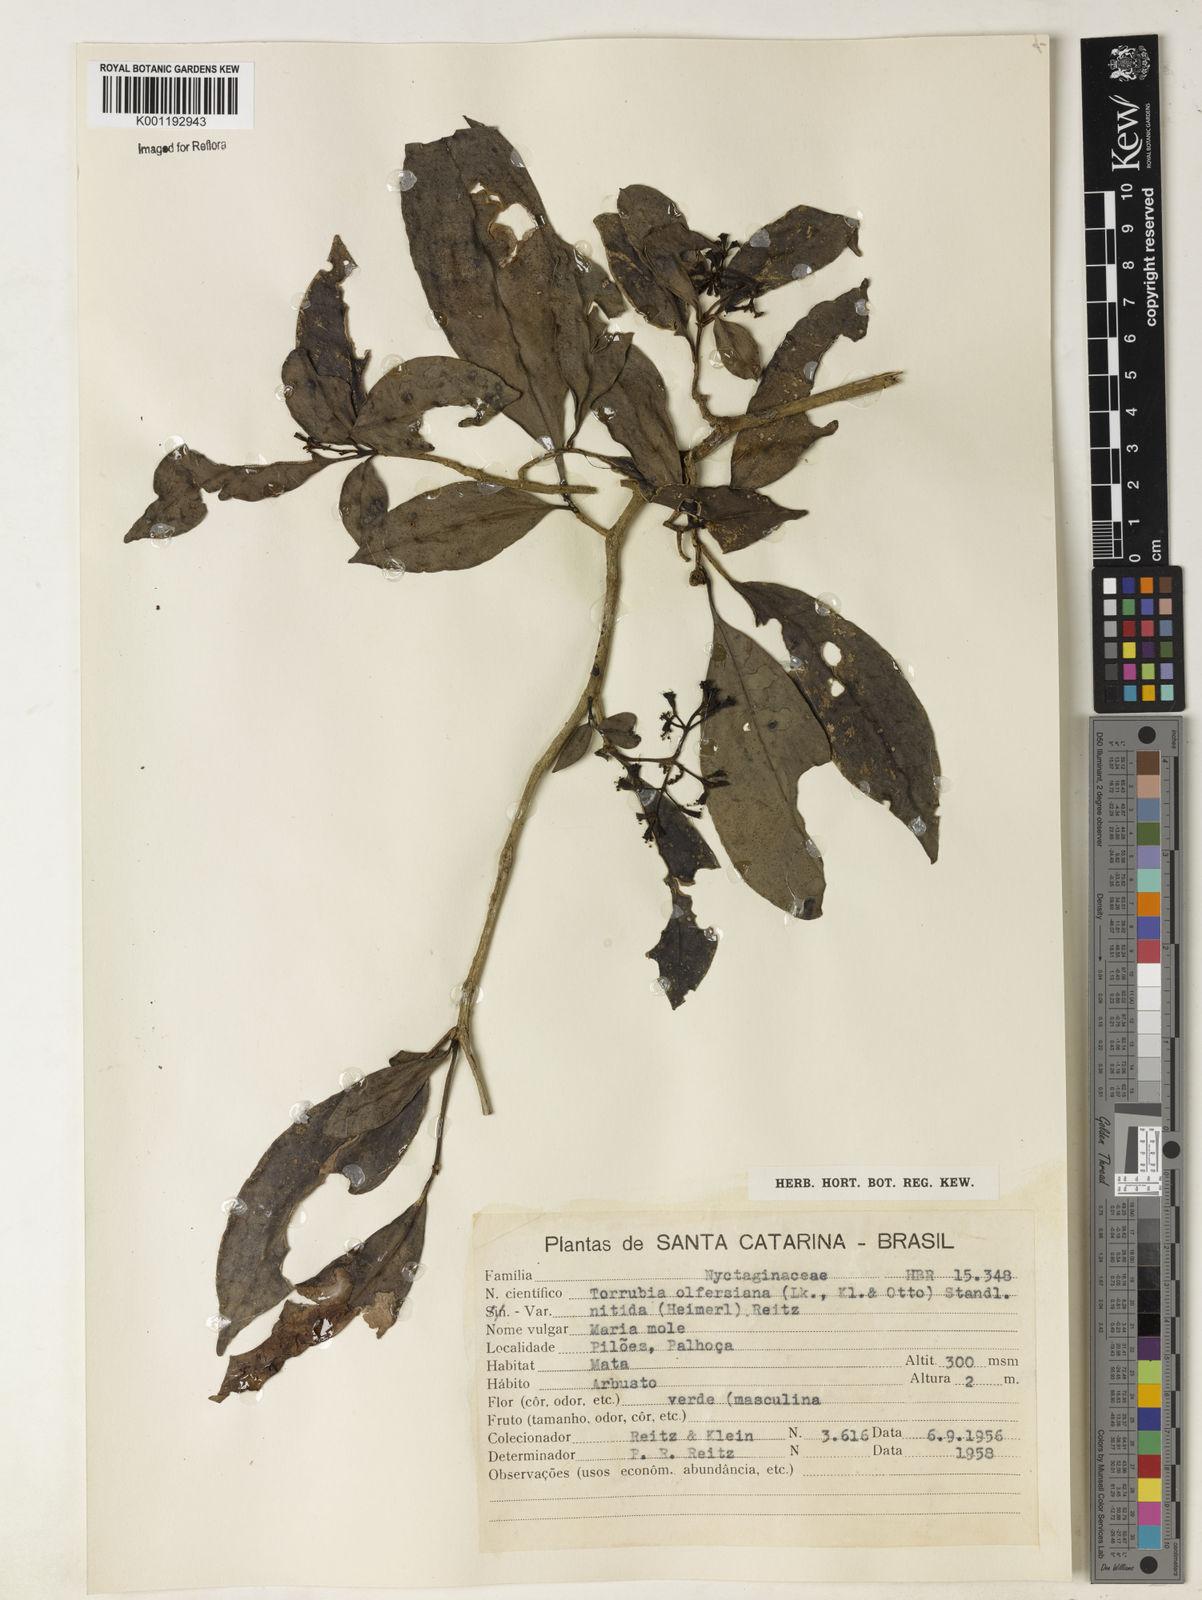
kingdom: Plantae
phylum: Tracheophyta
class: Magnoliopsida
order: Caryophyllales
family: Nyctaginaceae
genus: Guapira
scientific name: Guapira
